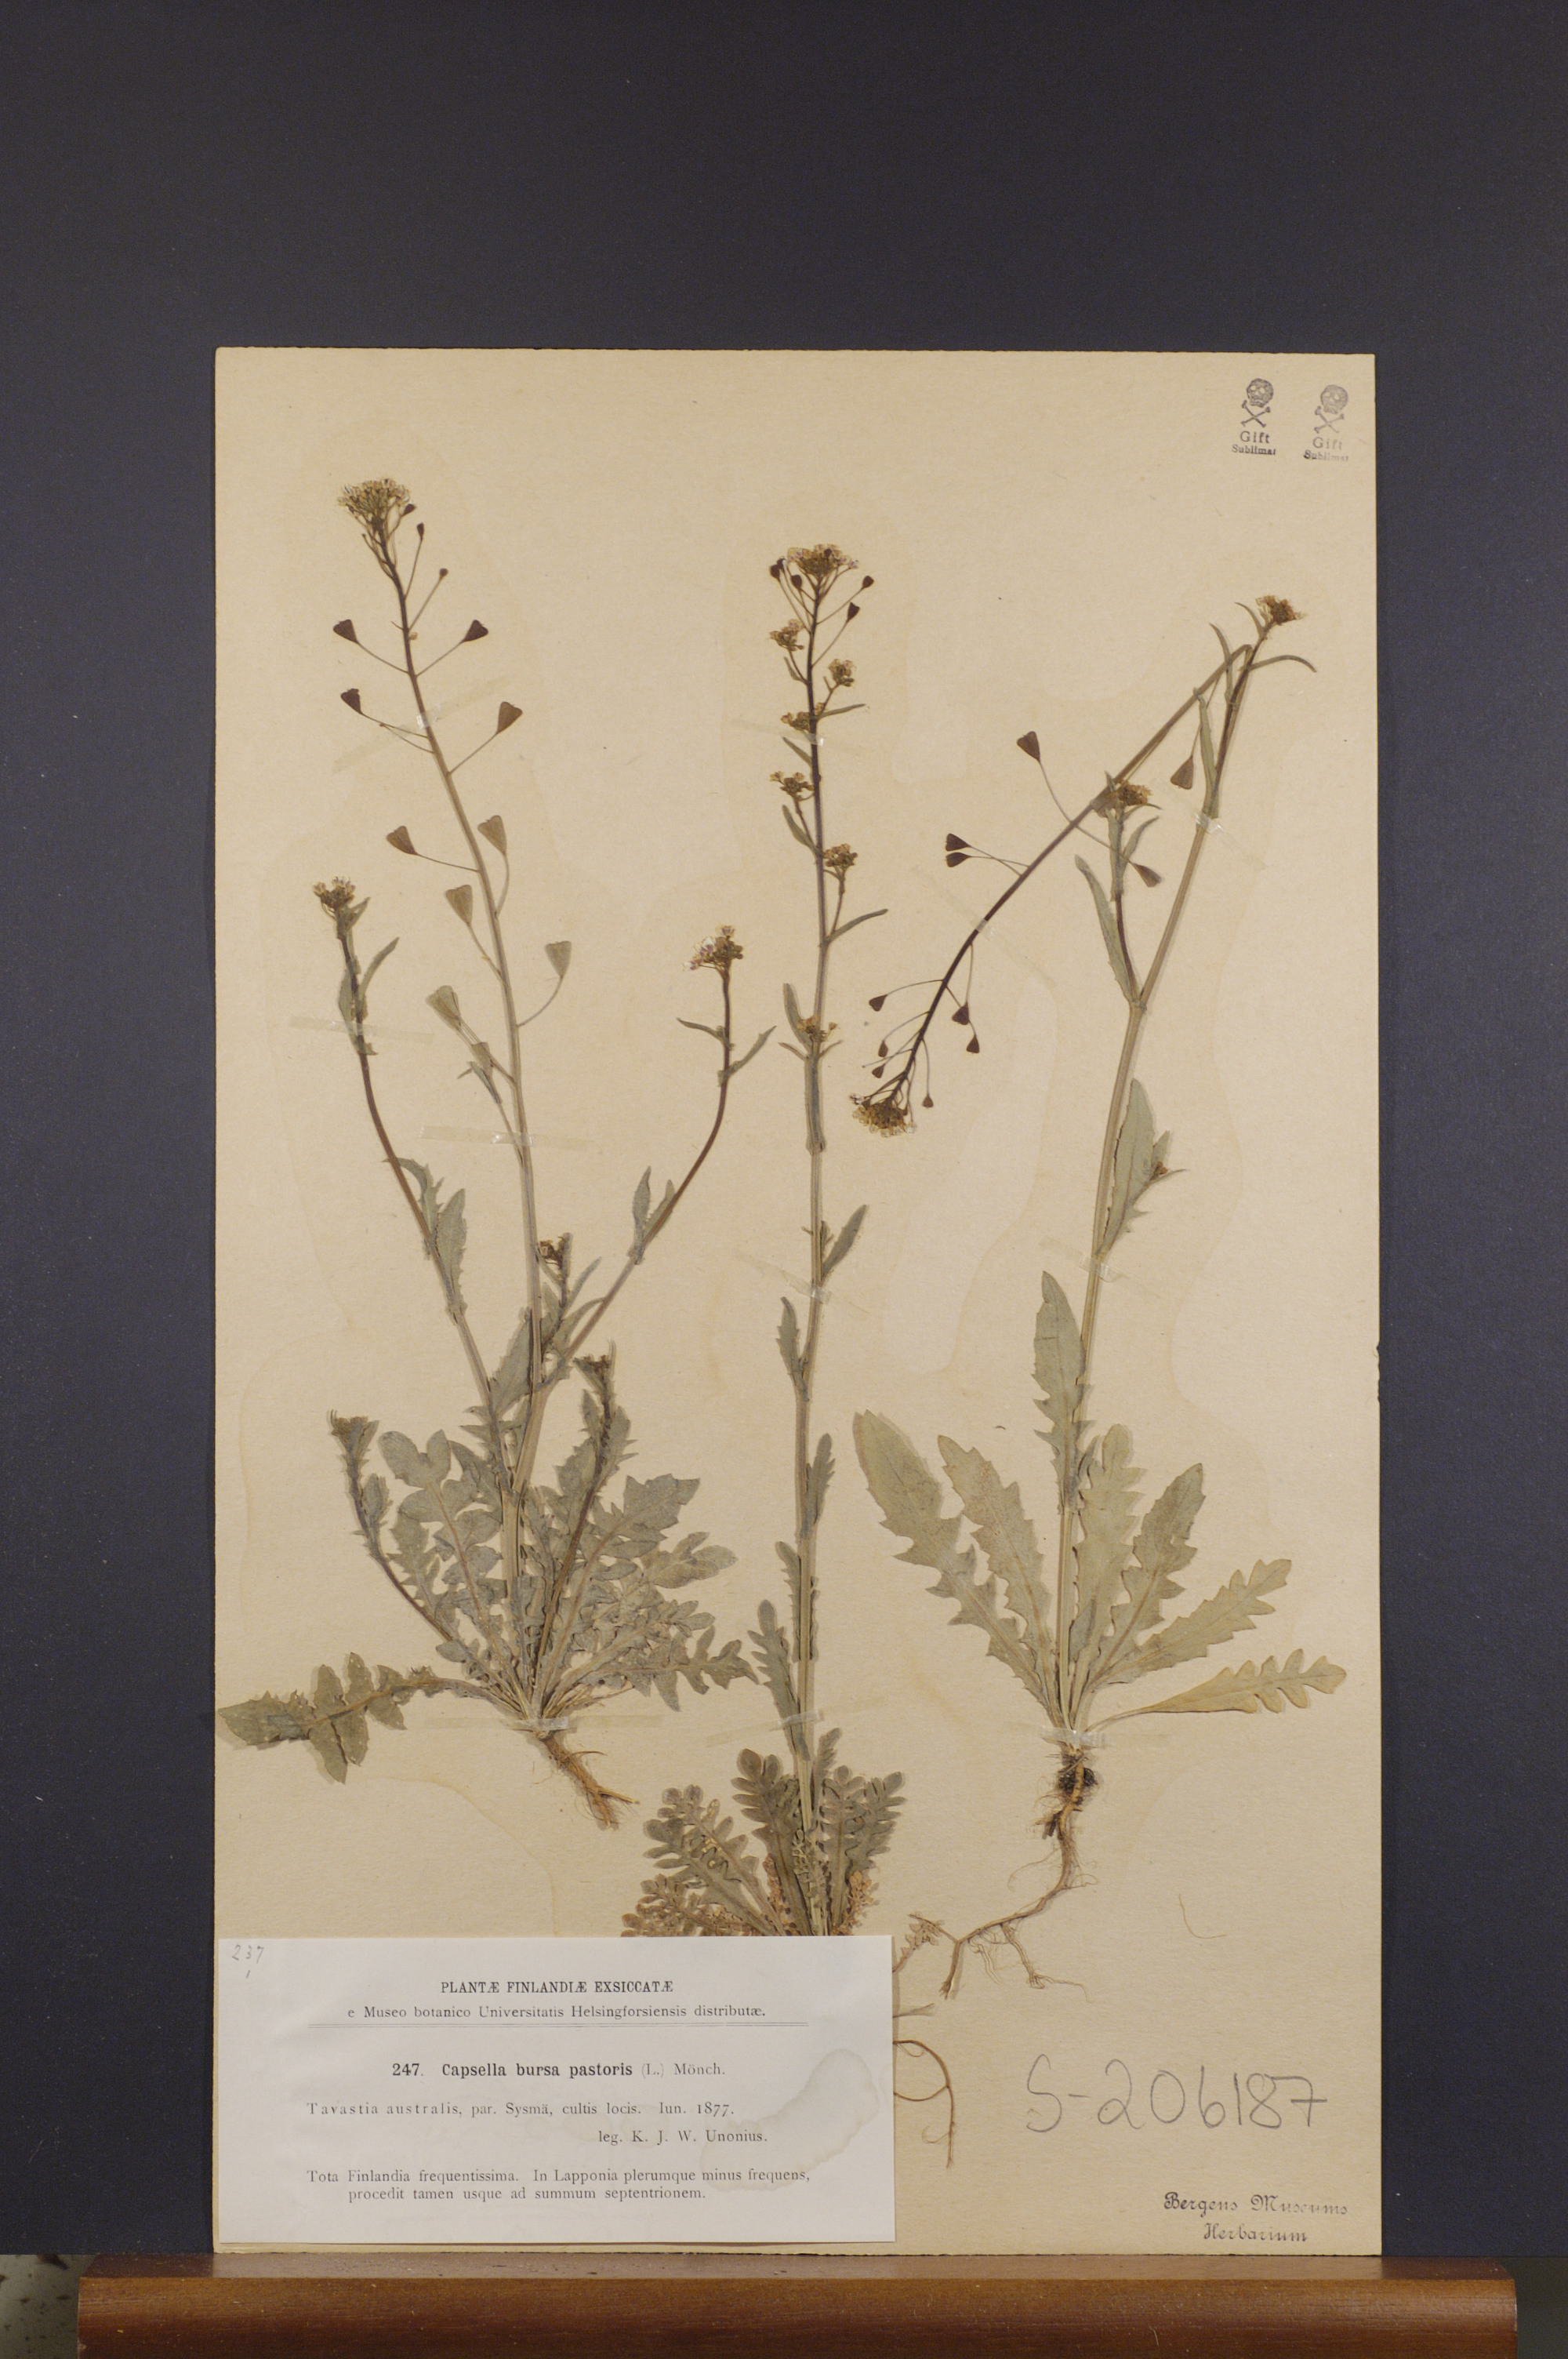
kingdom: Plantae
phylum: Tracheophyta
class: Magnoliopsida
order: Brassicales
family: Brassicaceae
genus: Capsella
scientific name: Capsella bursa-pastoris
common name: Shepherd's purse
